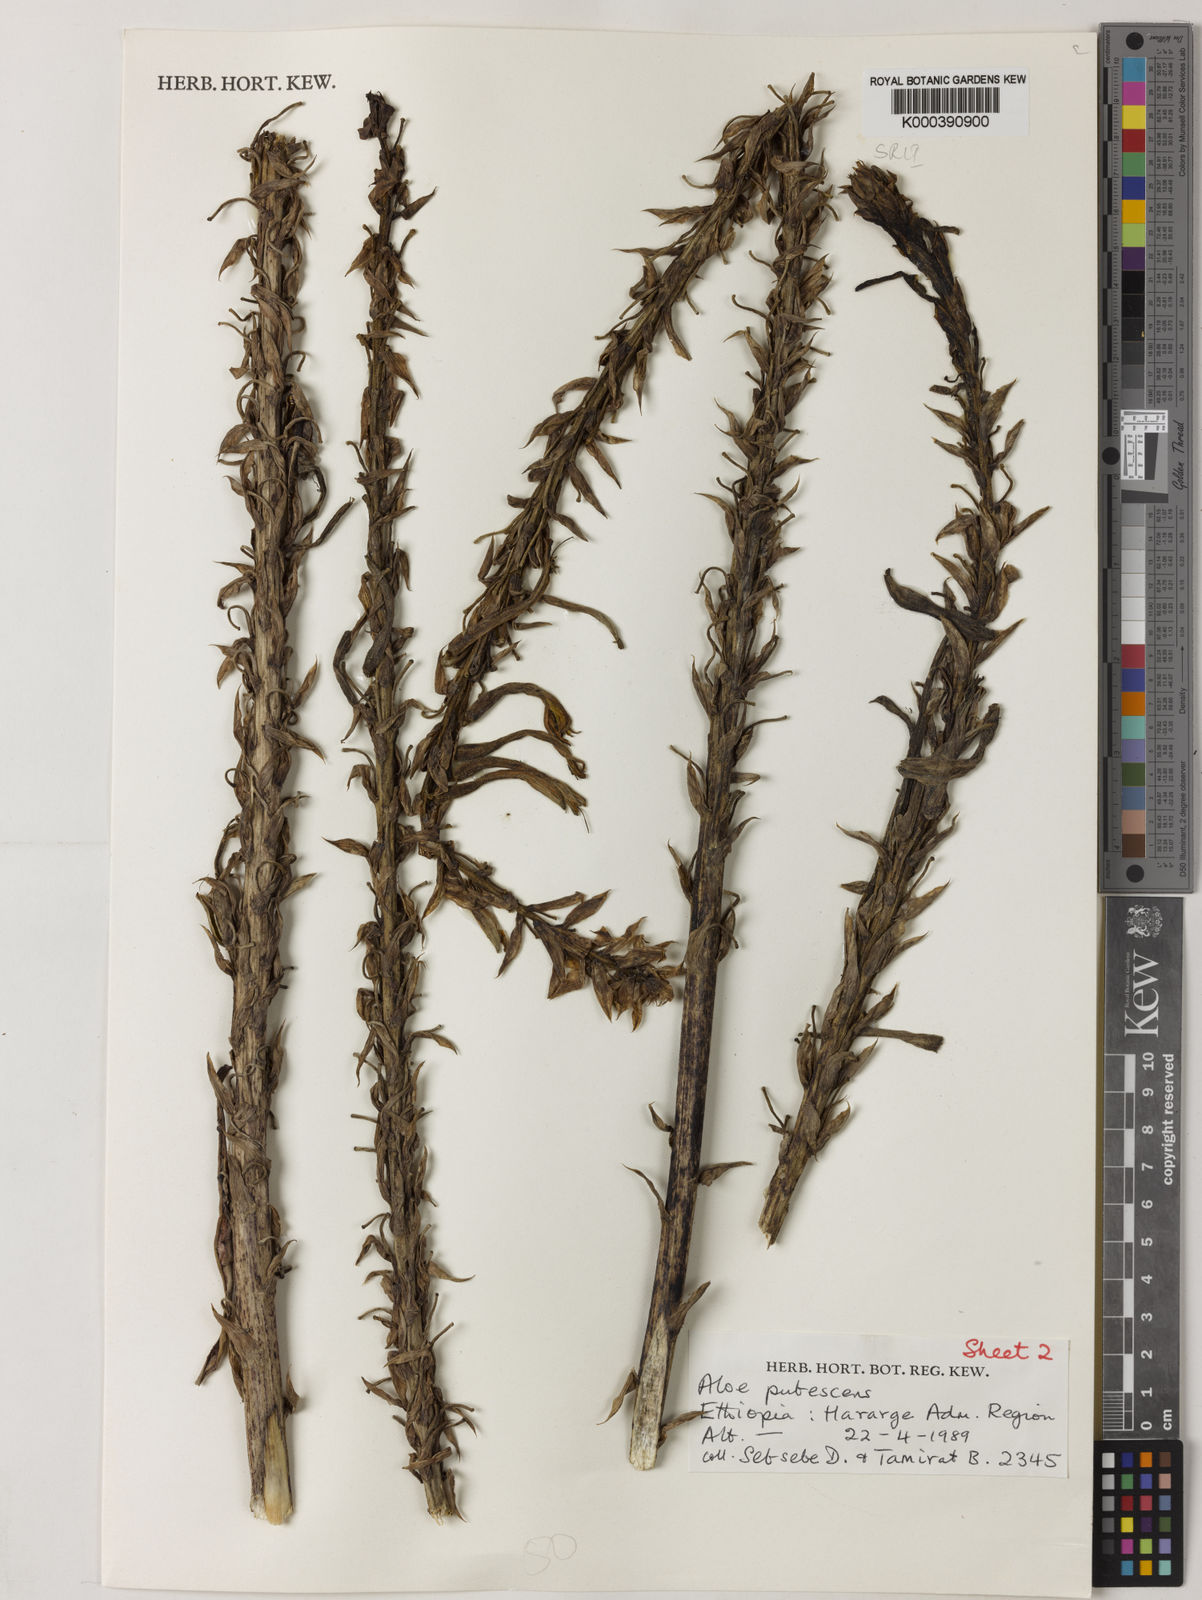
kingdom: Plantae
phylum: Tracheophyta
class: Liliopsida
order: Asparagales
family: Asphodelaceae
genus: Aloe
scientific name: Aloe pubescens
